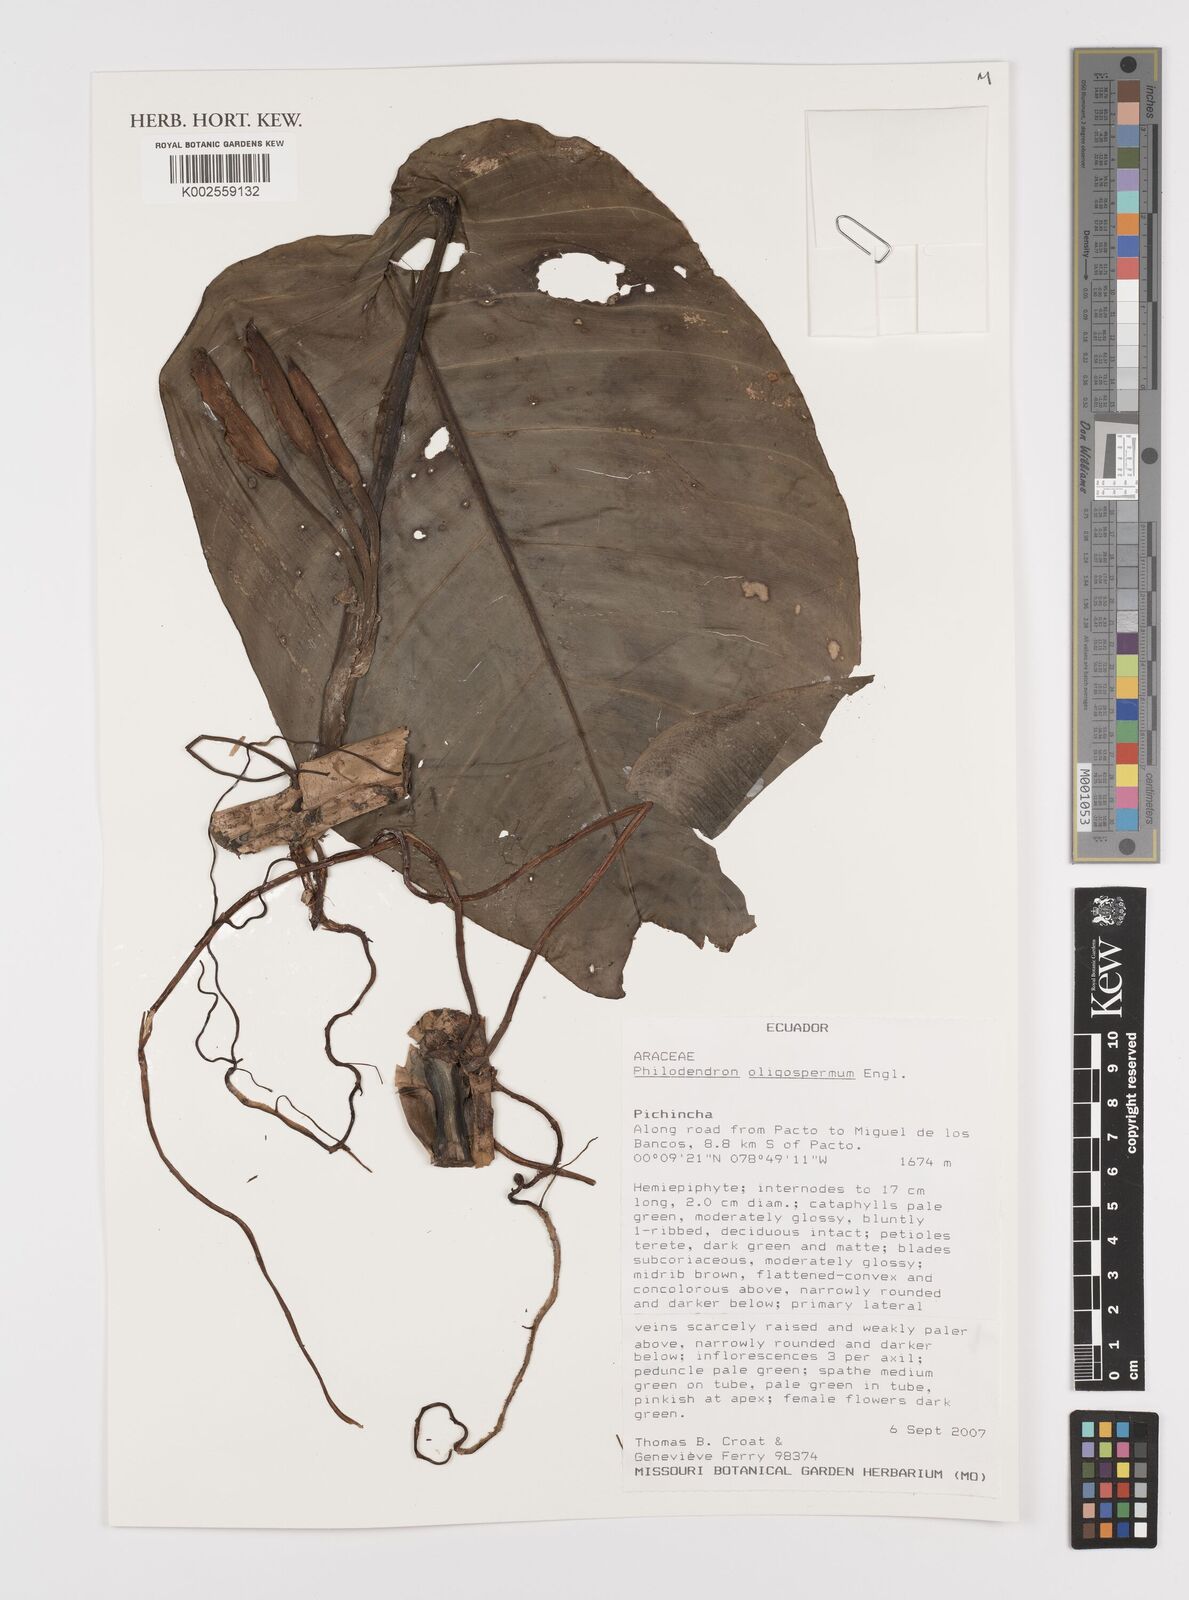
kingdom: Plantae
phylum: Tracheophyta
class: Liliopsida
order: Alismatales
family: Araceae
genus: Philodendron
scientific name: Philodendron oligospermum
